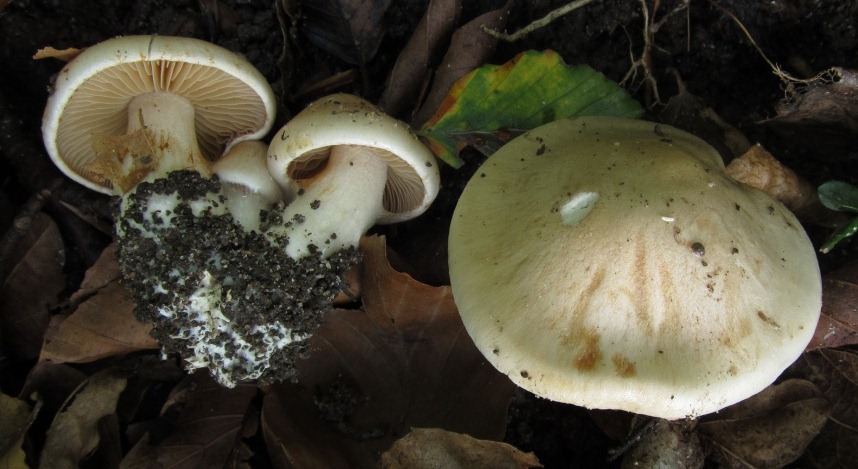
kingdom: Fungi
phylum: Basidiomycota
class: Agaricomycetes
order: Agaricales
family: Cortinariaceae
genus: Thaxterogaster
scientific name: Thaxterogaster barbatus
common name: elfenbens-slørhat
